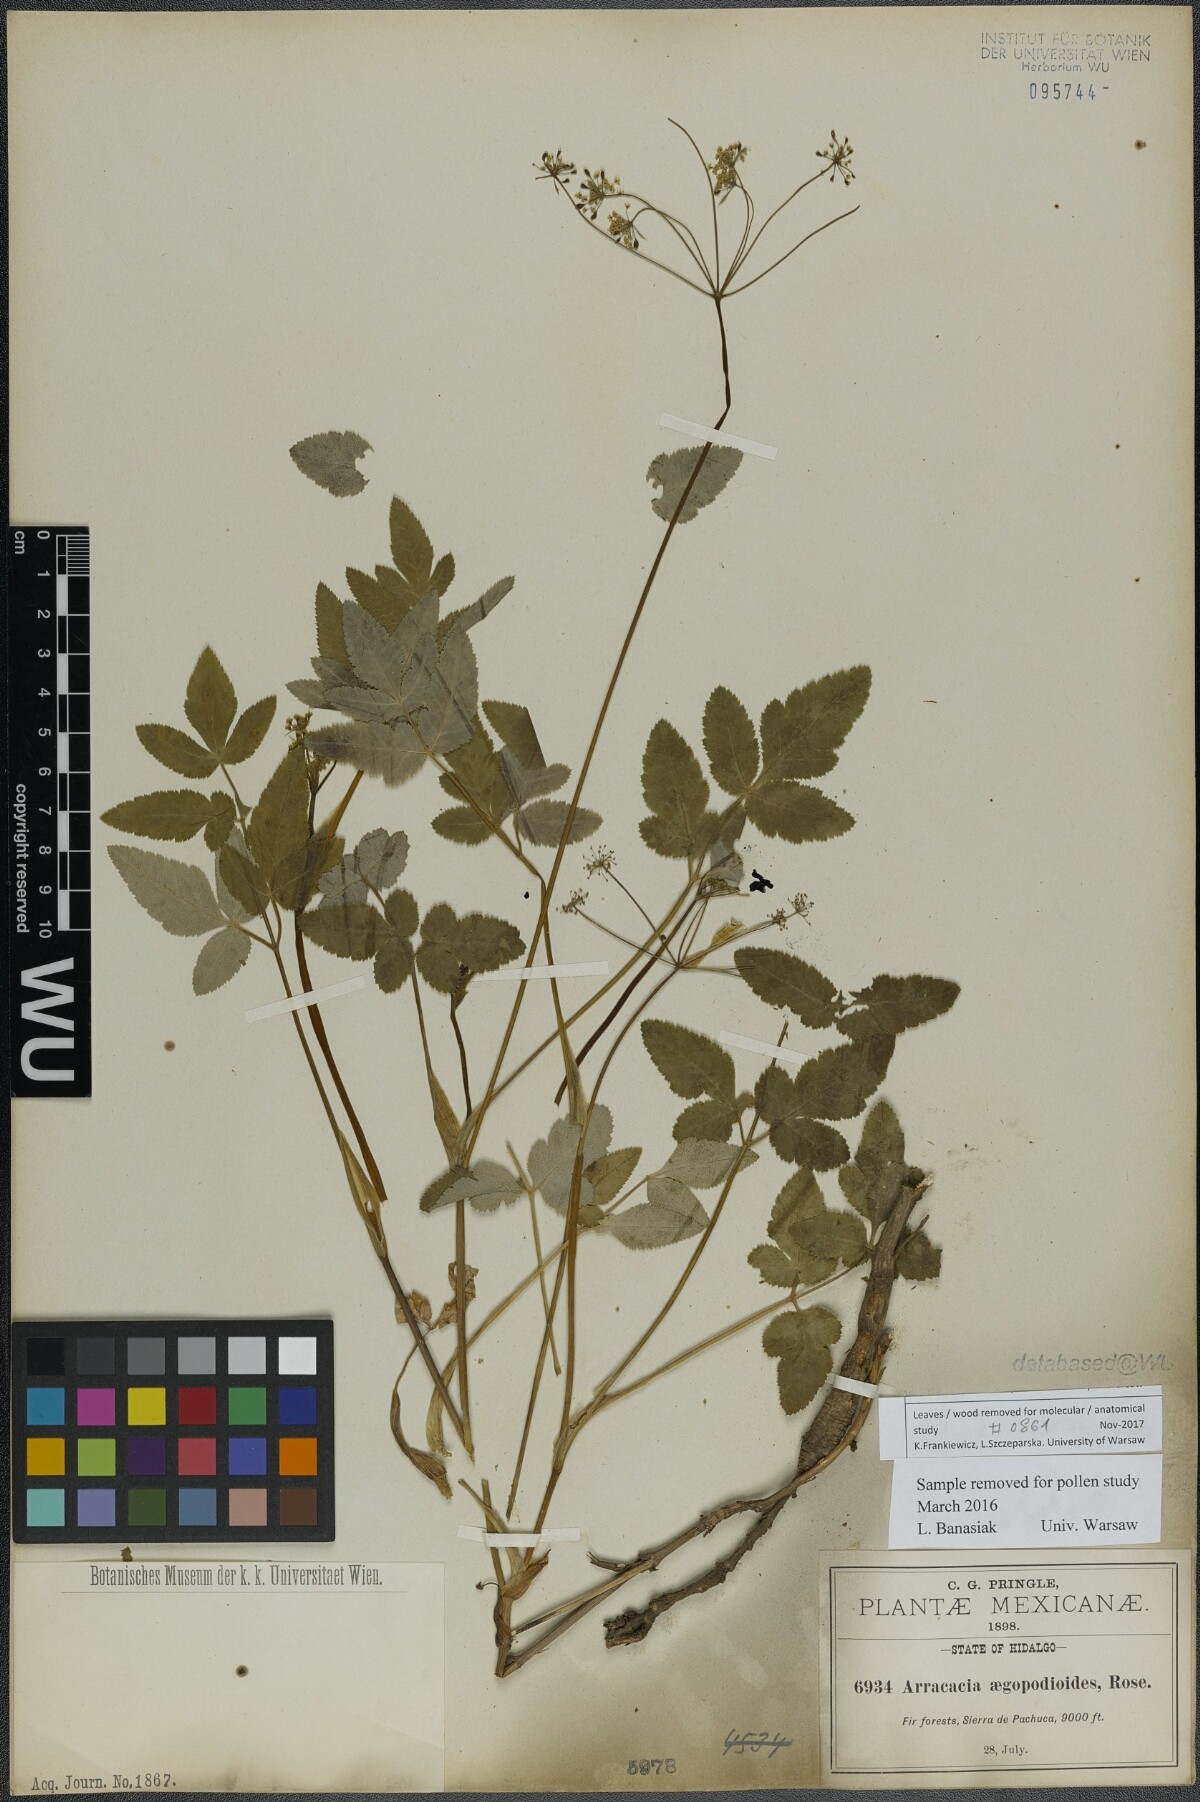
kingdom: Plantae
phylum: Tracheophyta
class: Magnoliopsida
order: Apiales
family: Apiaceae
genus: Arracacia
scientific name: Arracacia aegopodioides
